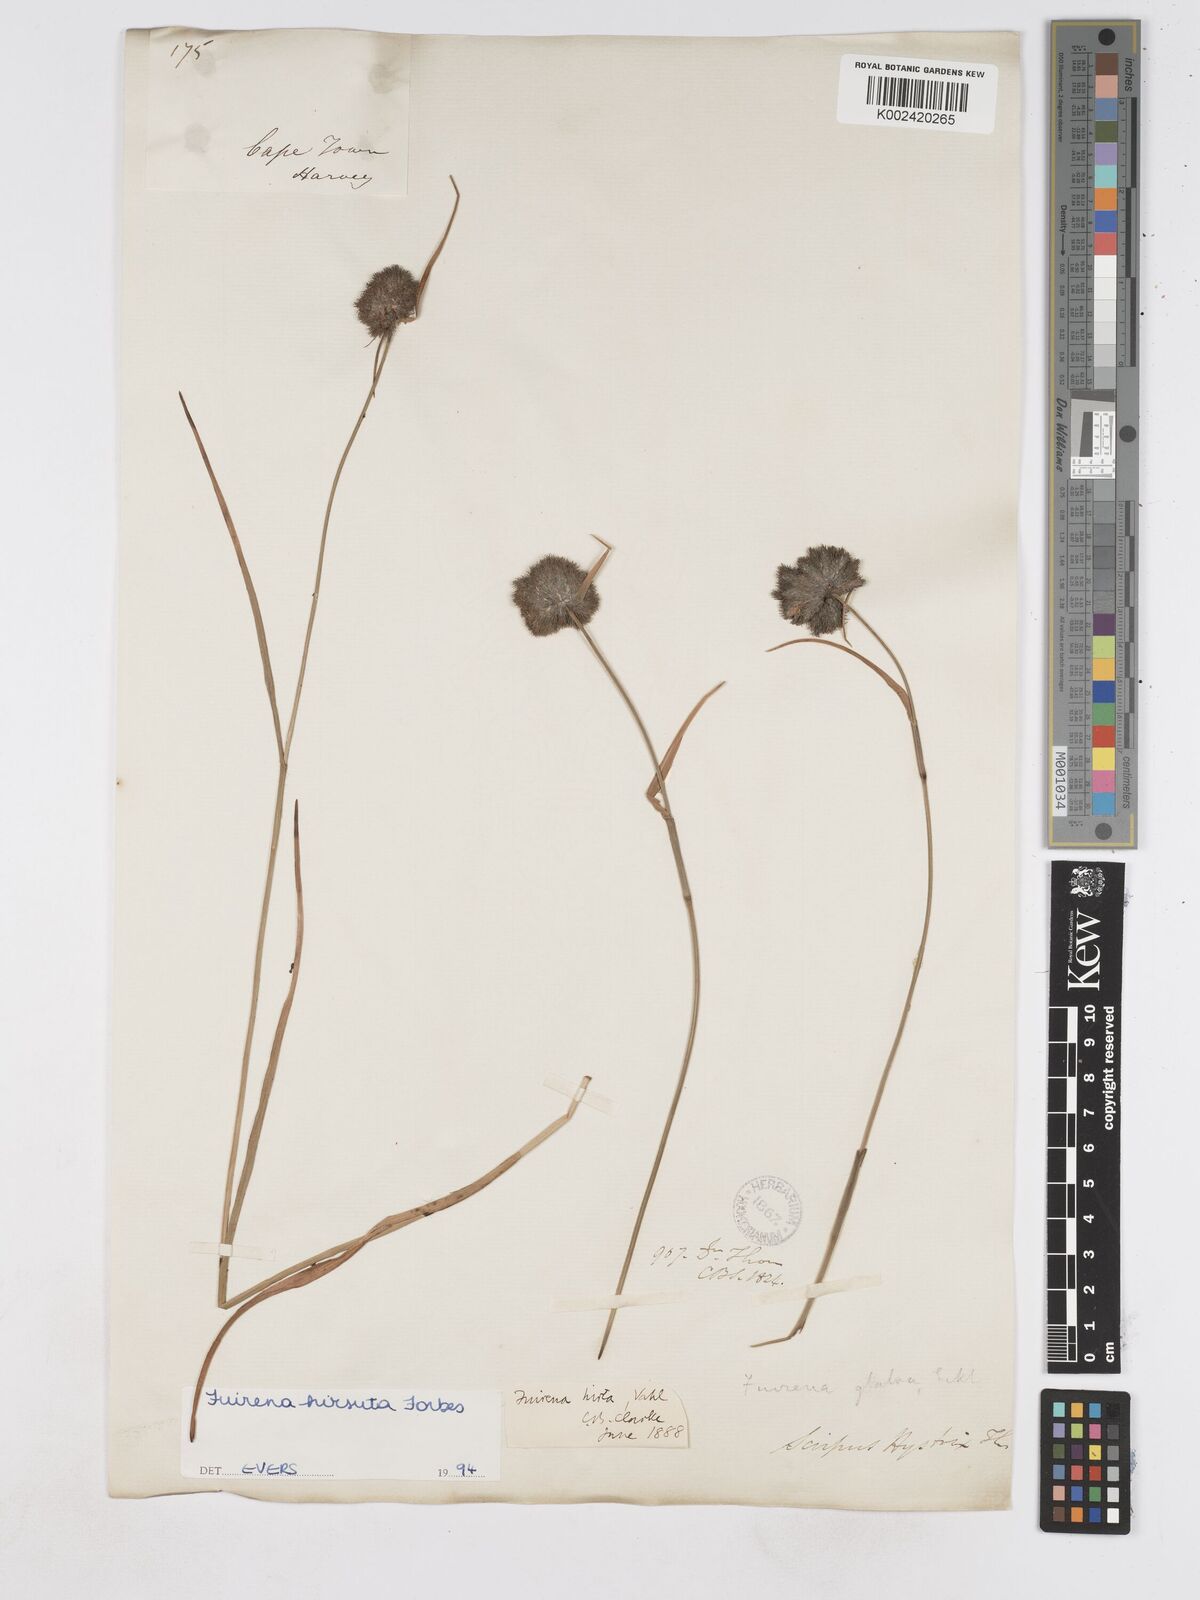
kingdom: Plantae
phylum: Tracheophyta
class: Liliopsida
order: Poales
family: Cyperaceae
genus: Fuirena
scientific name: Fuirena hirsuta
